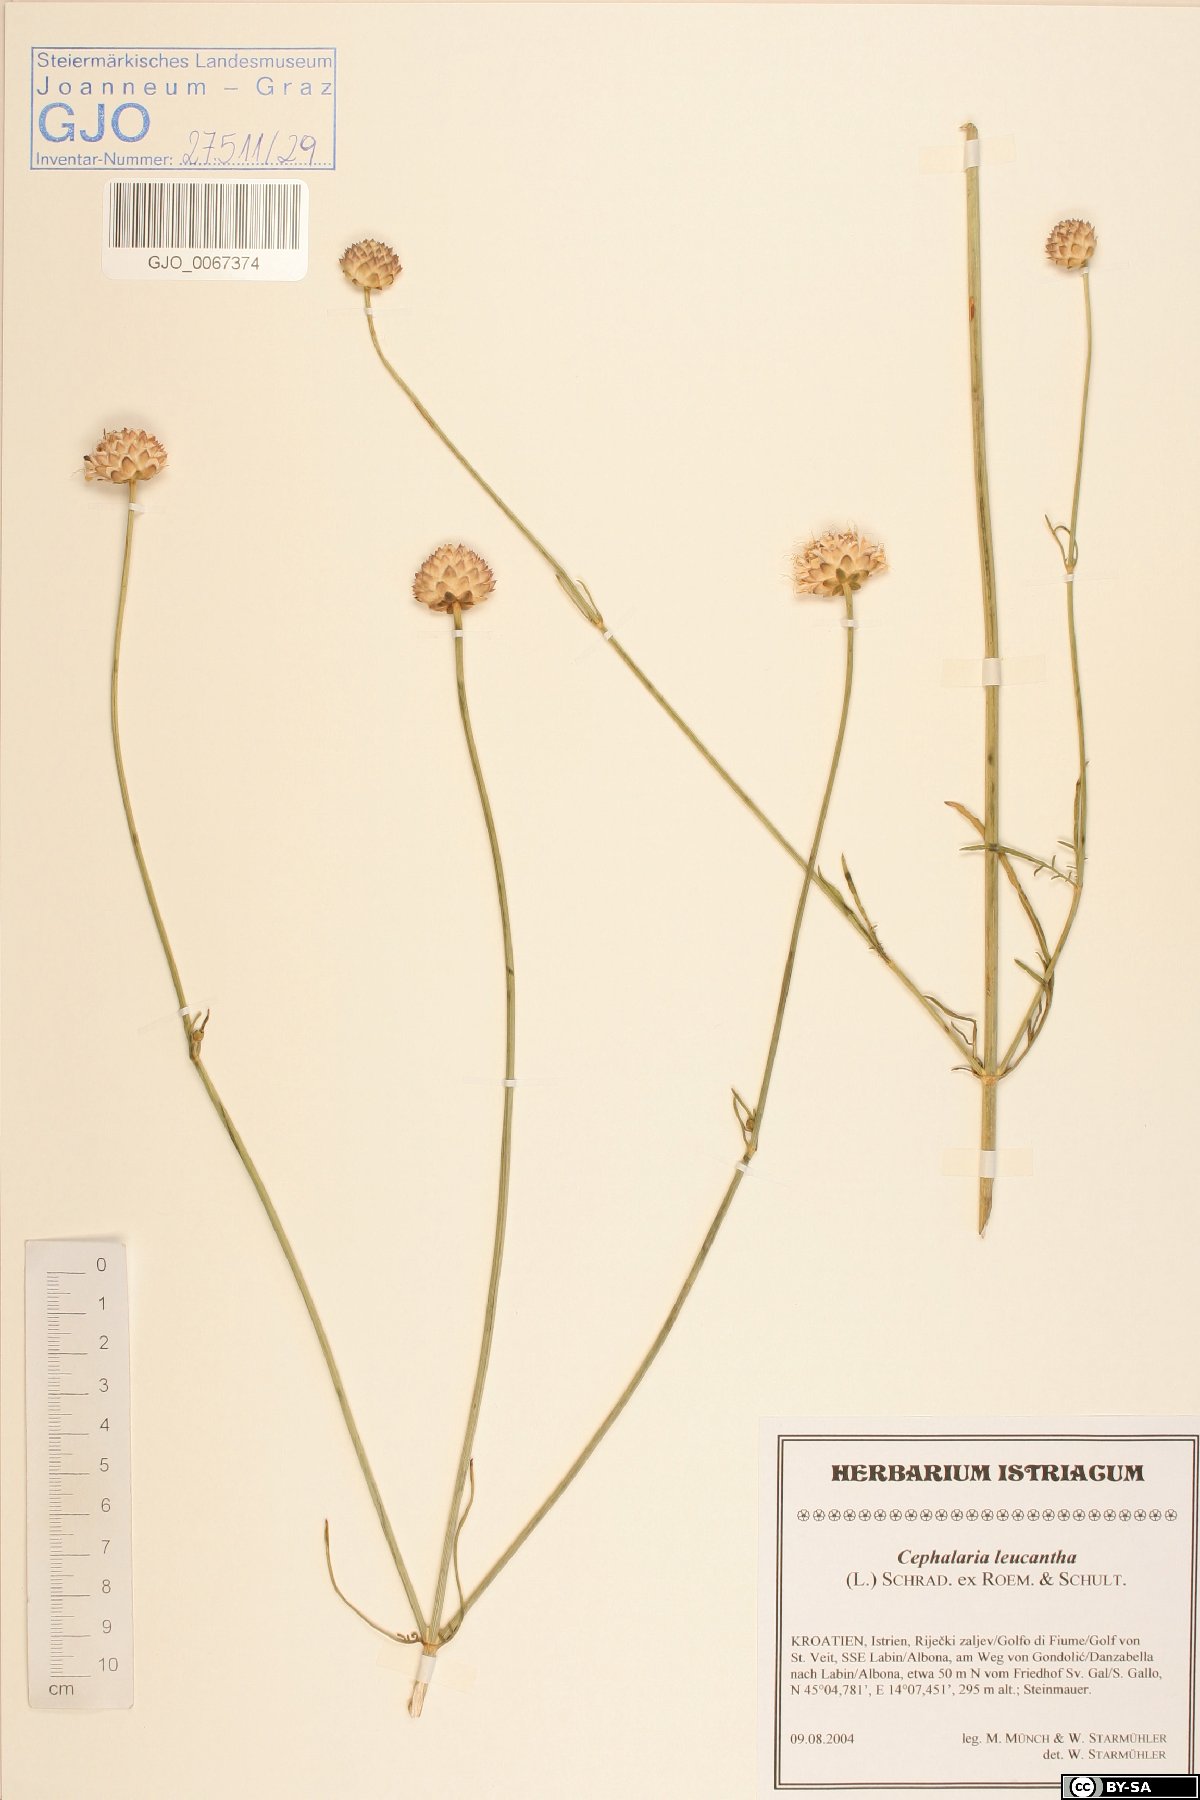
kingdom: Plantae
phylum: Tracheophyta
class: Magnoliopsida
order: Dipsacales
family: Dipsacaceae
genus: Cephalaria
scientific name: Cephalaria leucantha
